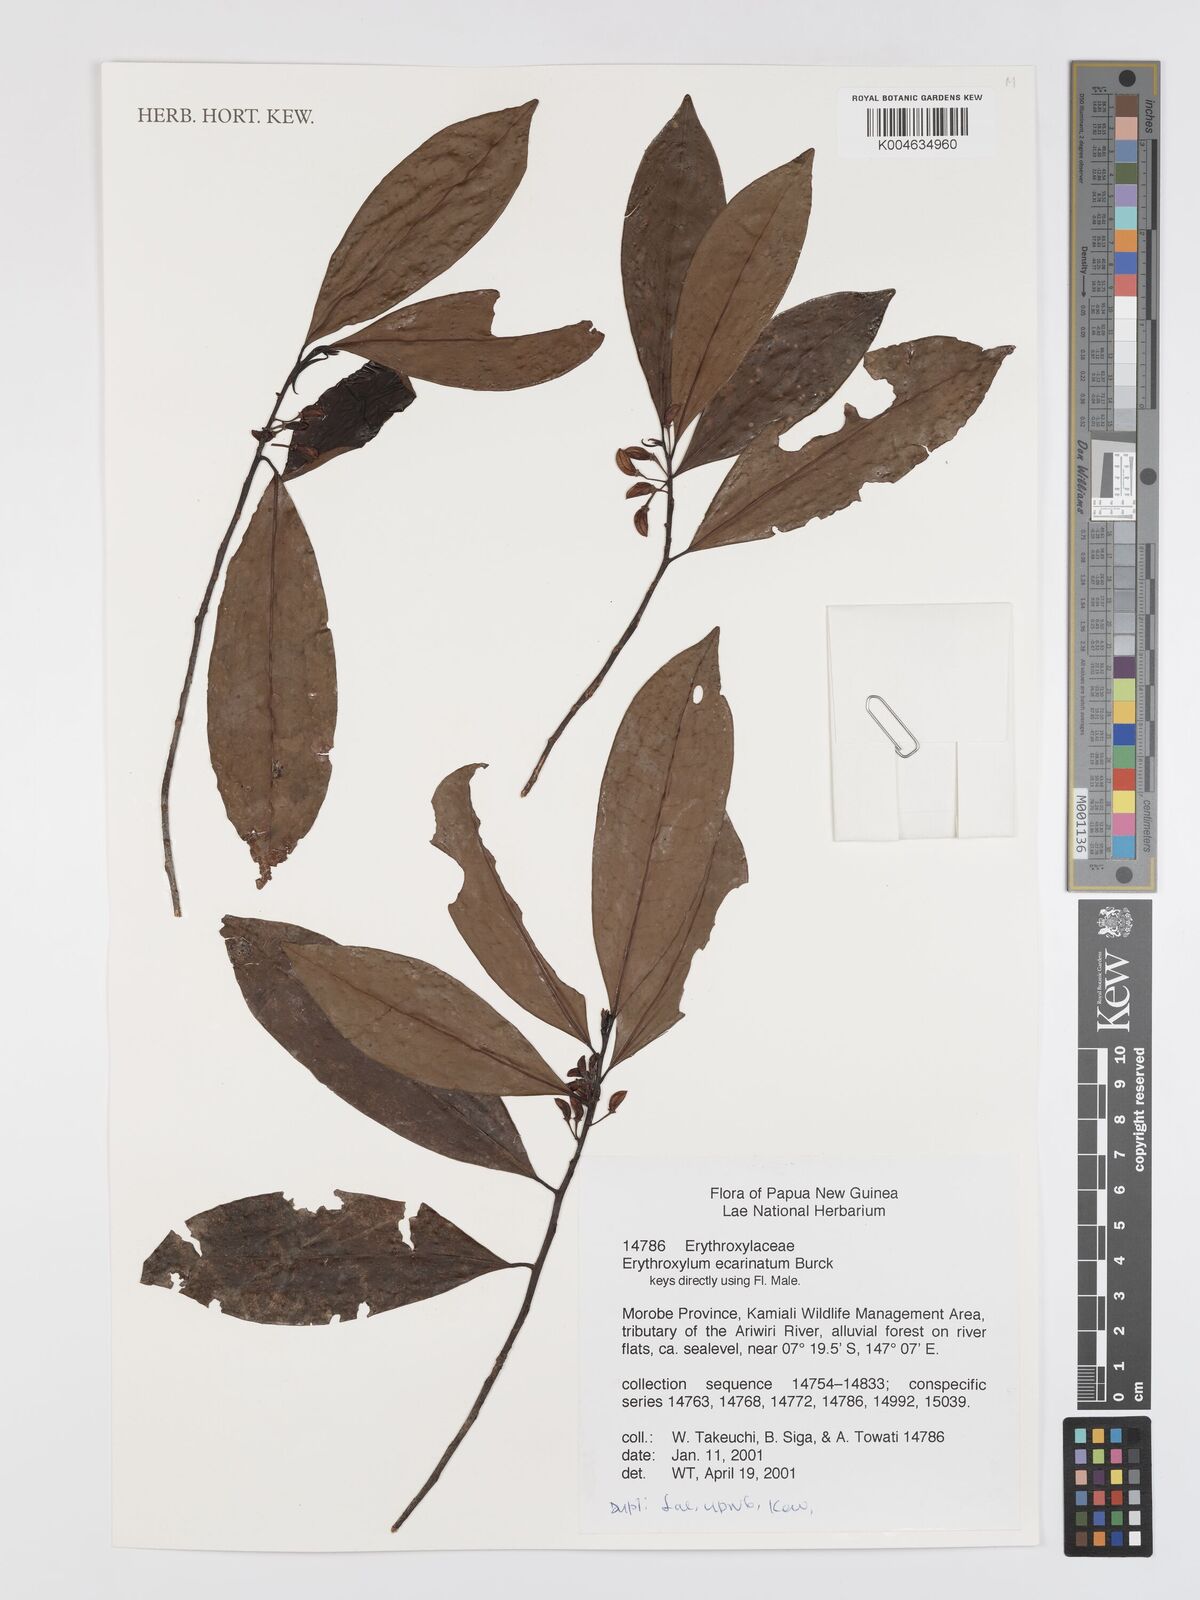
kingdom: Plantae
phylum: Tracheophyta
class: Magnoliopsida
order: Malpighiales
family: Erythroxylaceae
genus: Erythroxylum
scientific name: Erythroxylum ecarinatum
